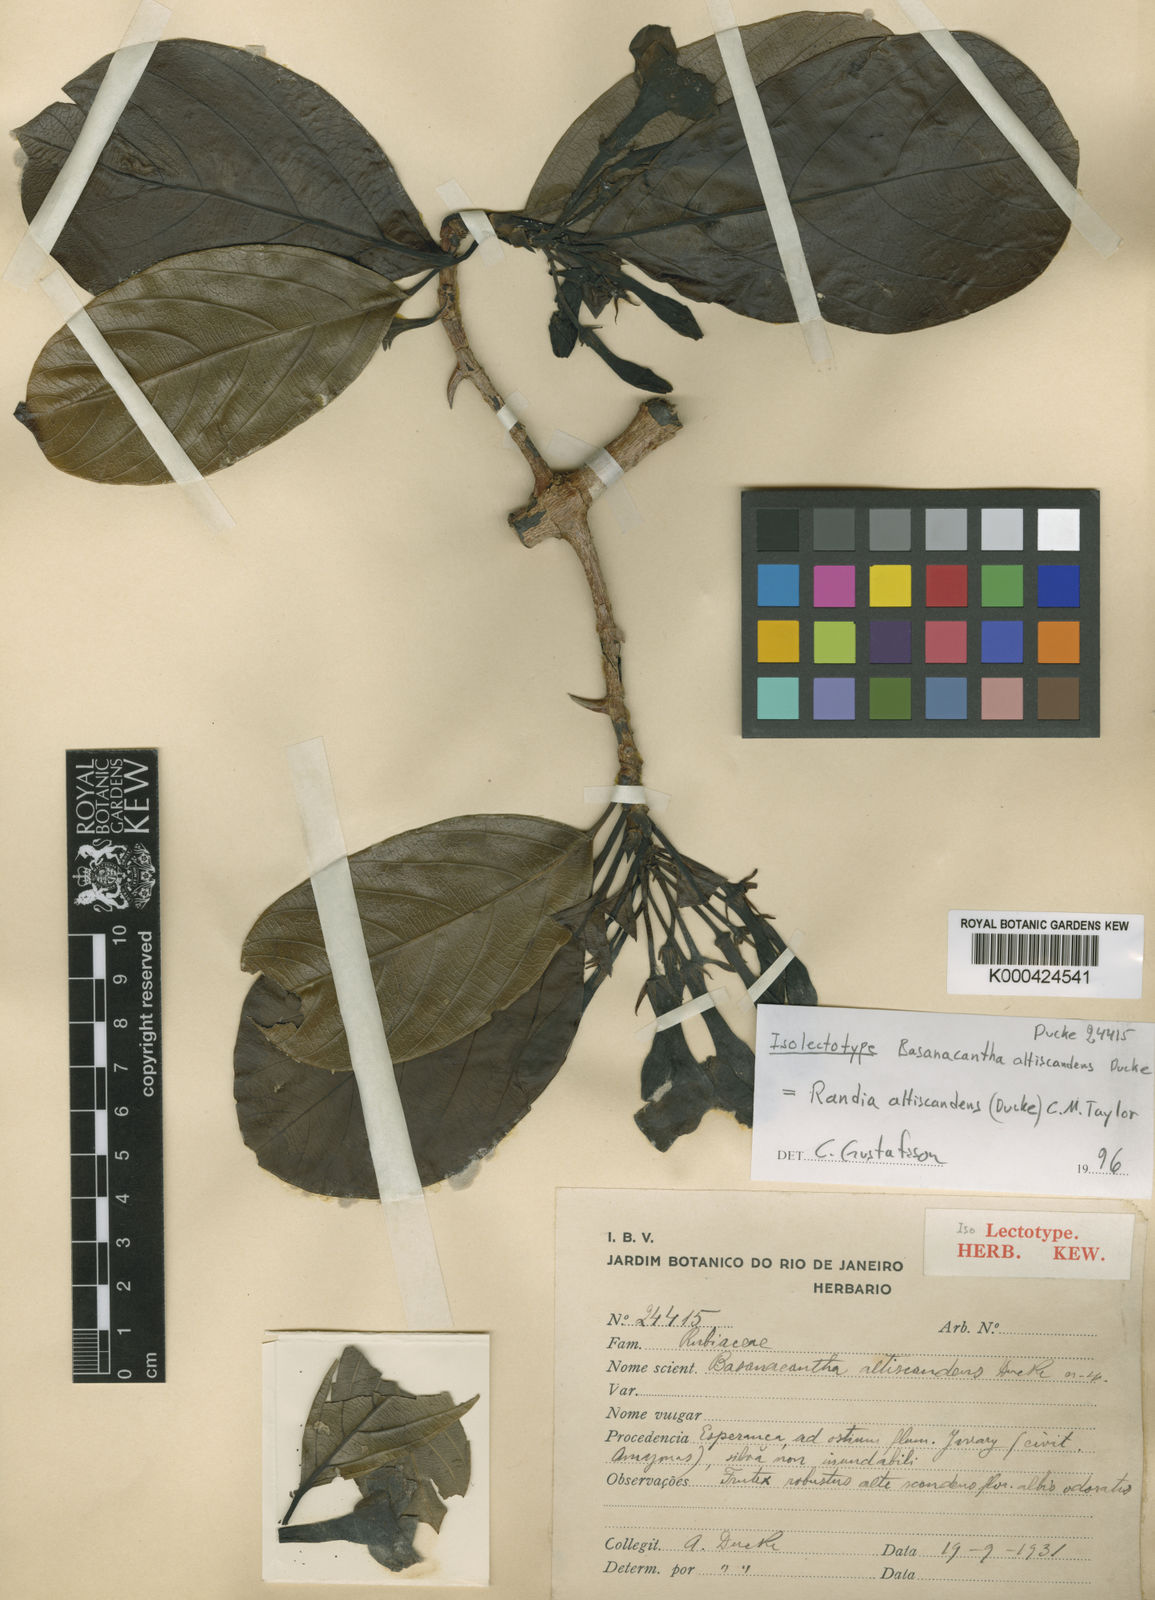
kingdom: Plantae
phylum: Tracheophyta
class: Magnoliopsida
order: Gentianales
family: Rubiaceae
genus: Randia
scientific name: Randia altiscandens
